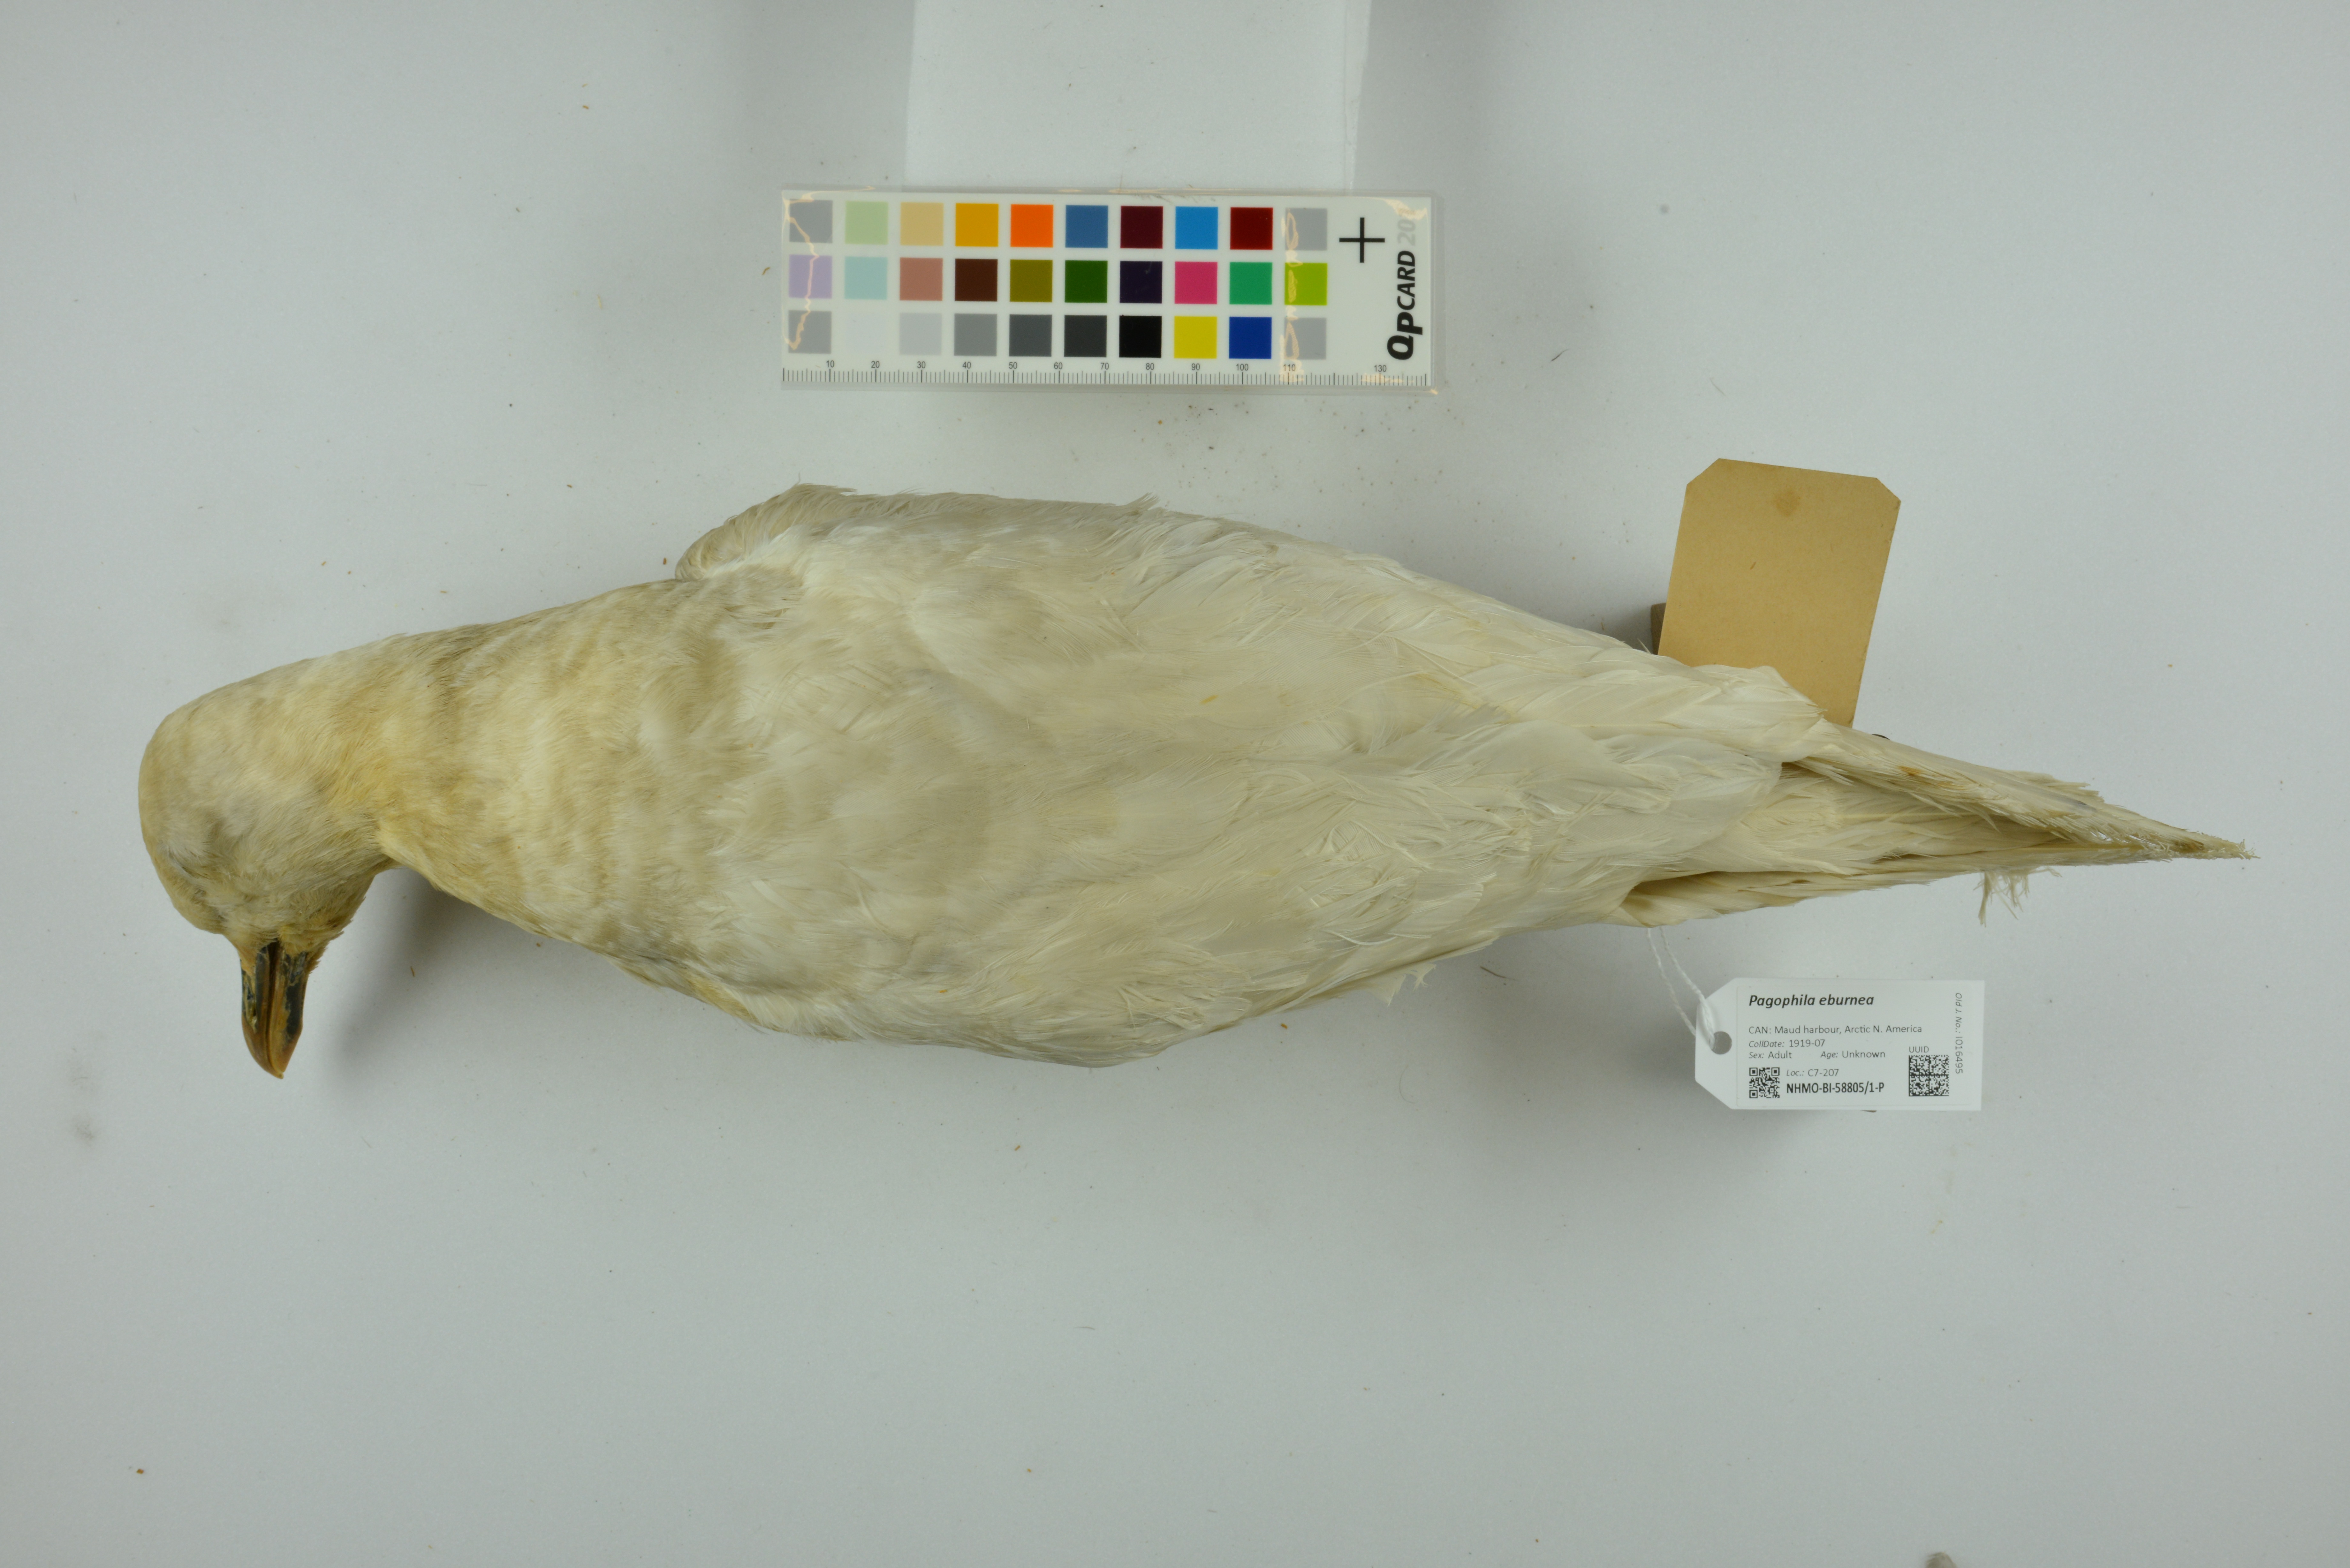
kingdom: Animalia
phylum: Chordata
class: Aves
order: Charadriiformes
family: Laridae
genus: Pagophila
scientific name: Pagophila eburnea
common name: Ivory gull
